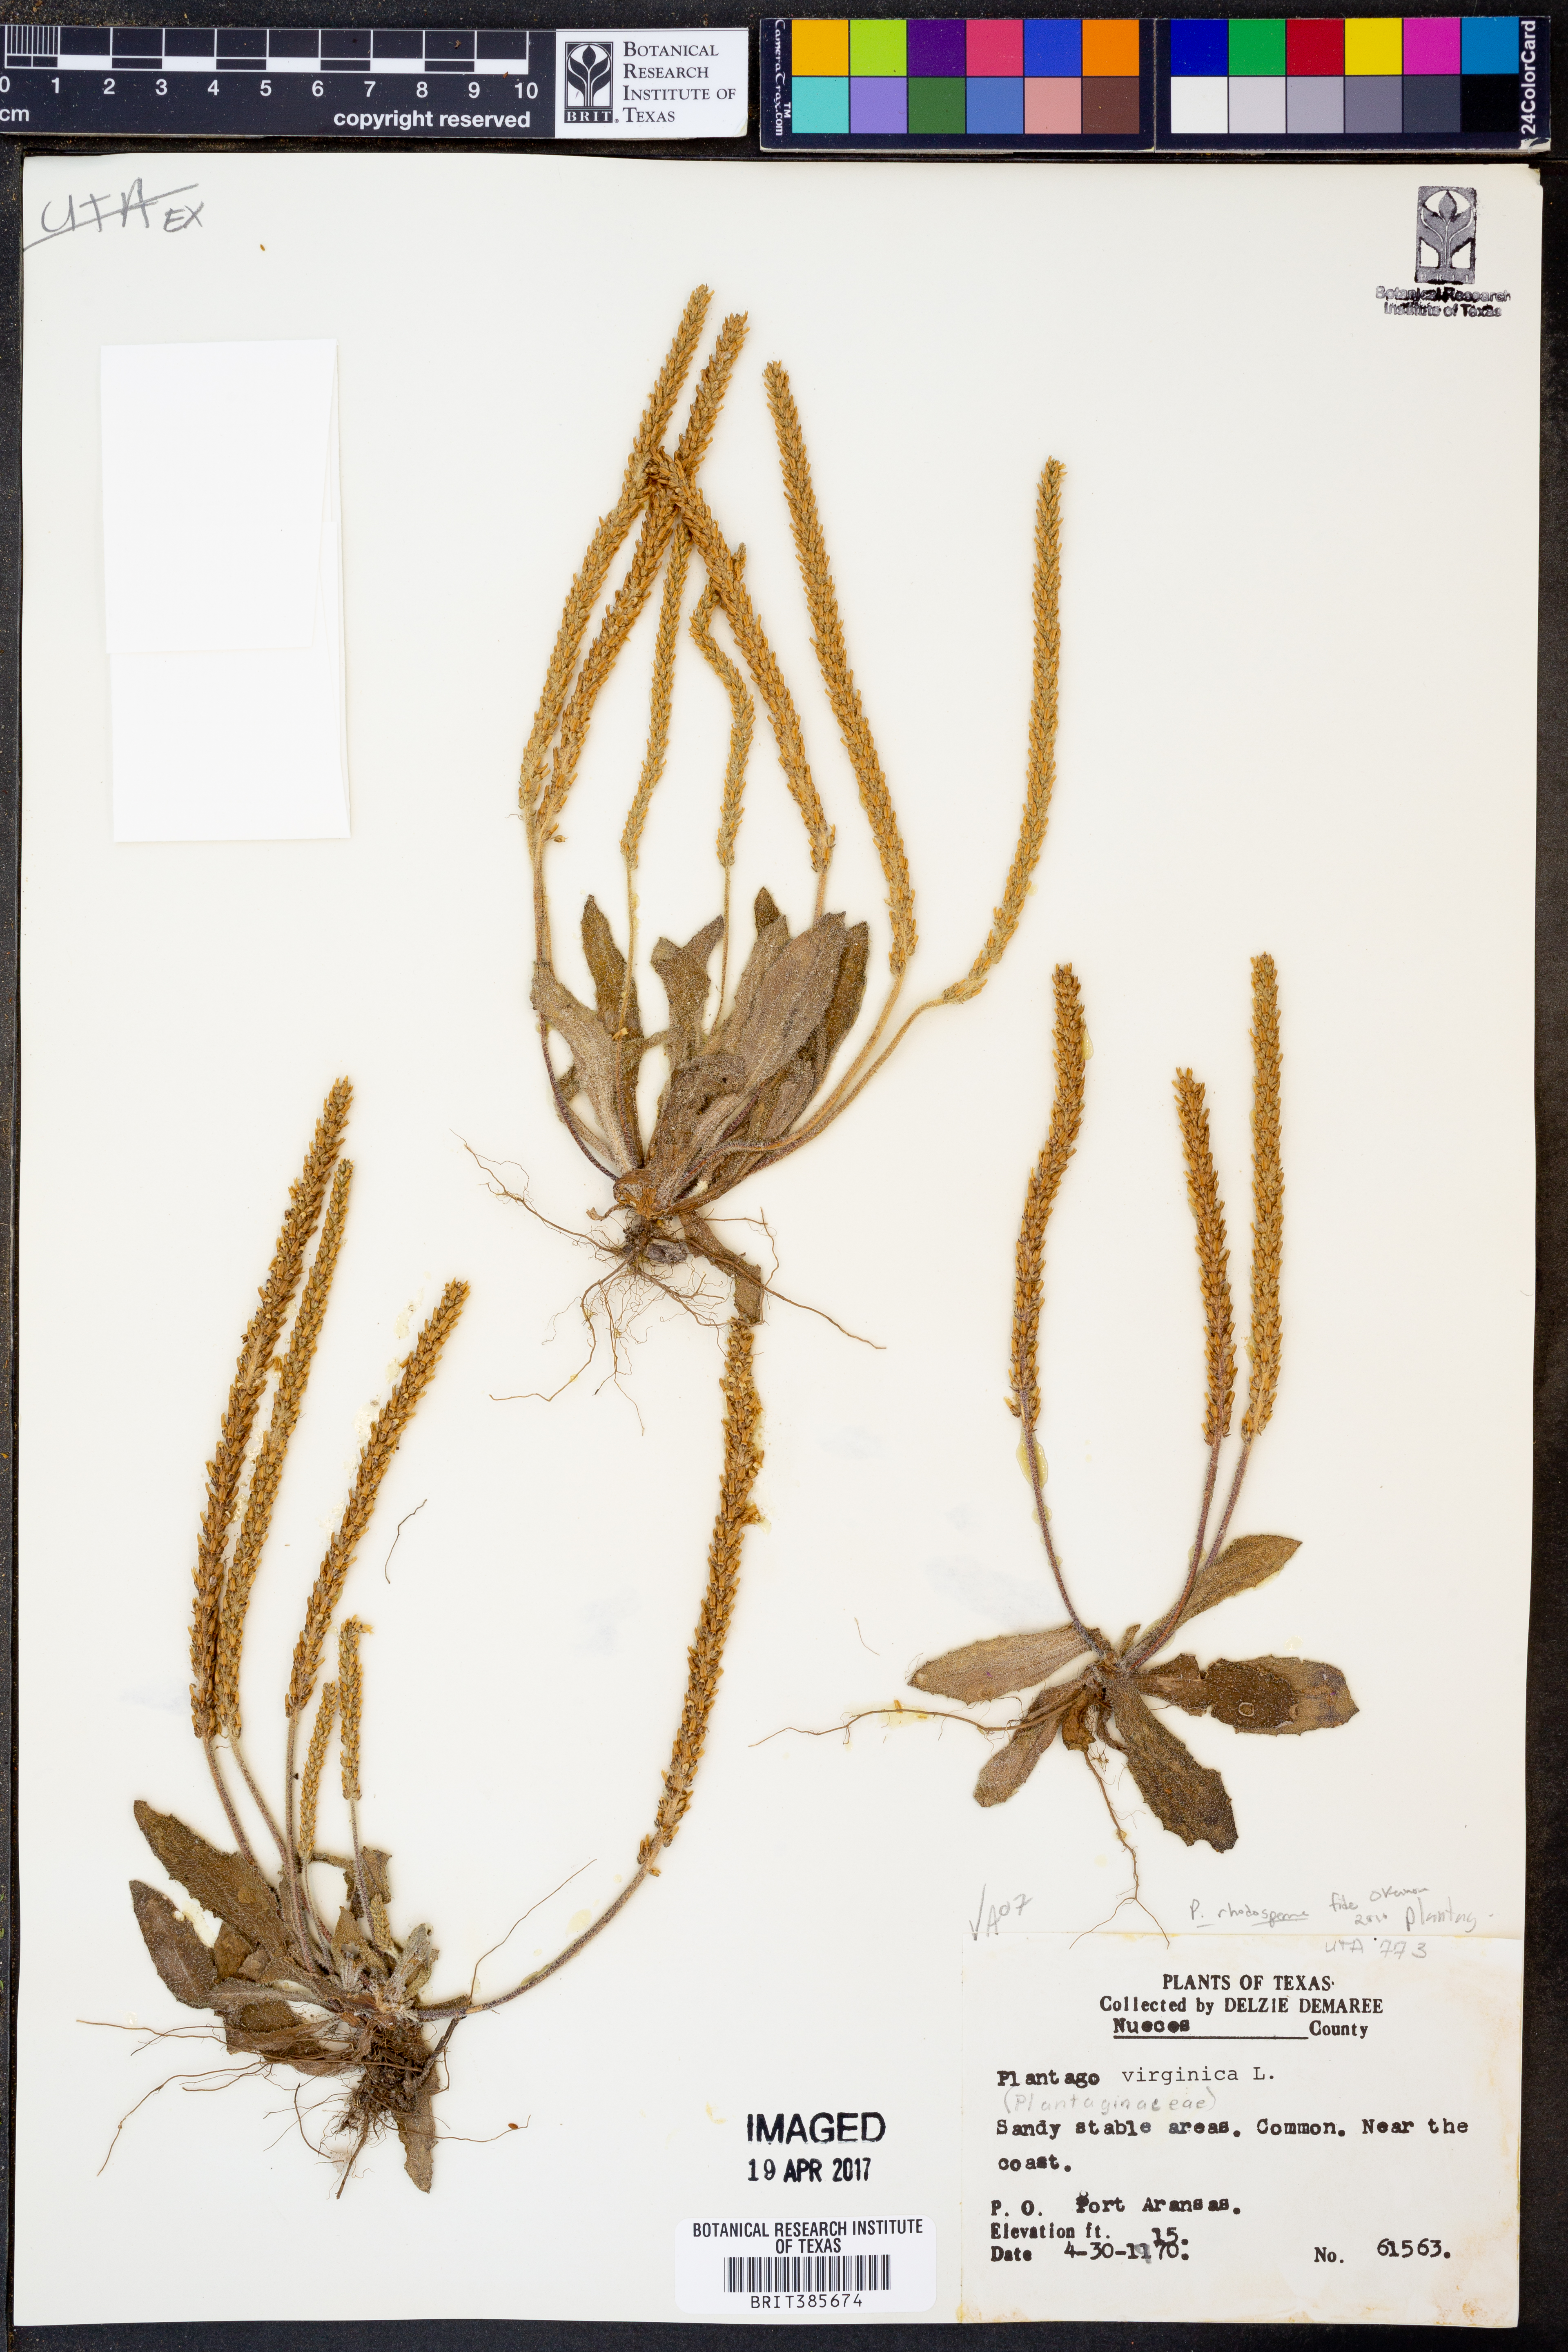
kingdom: Plantae
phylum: Tracheophyta
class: Magnoliopsida
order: Lamiales
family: Plantaginaceae
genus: Plantago
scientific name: Plantago rhodosperma
